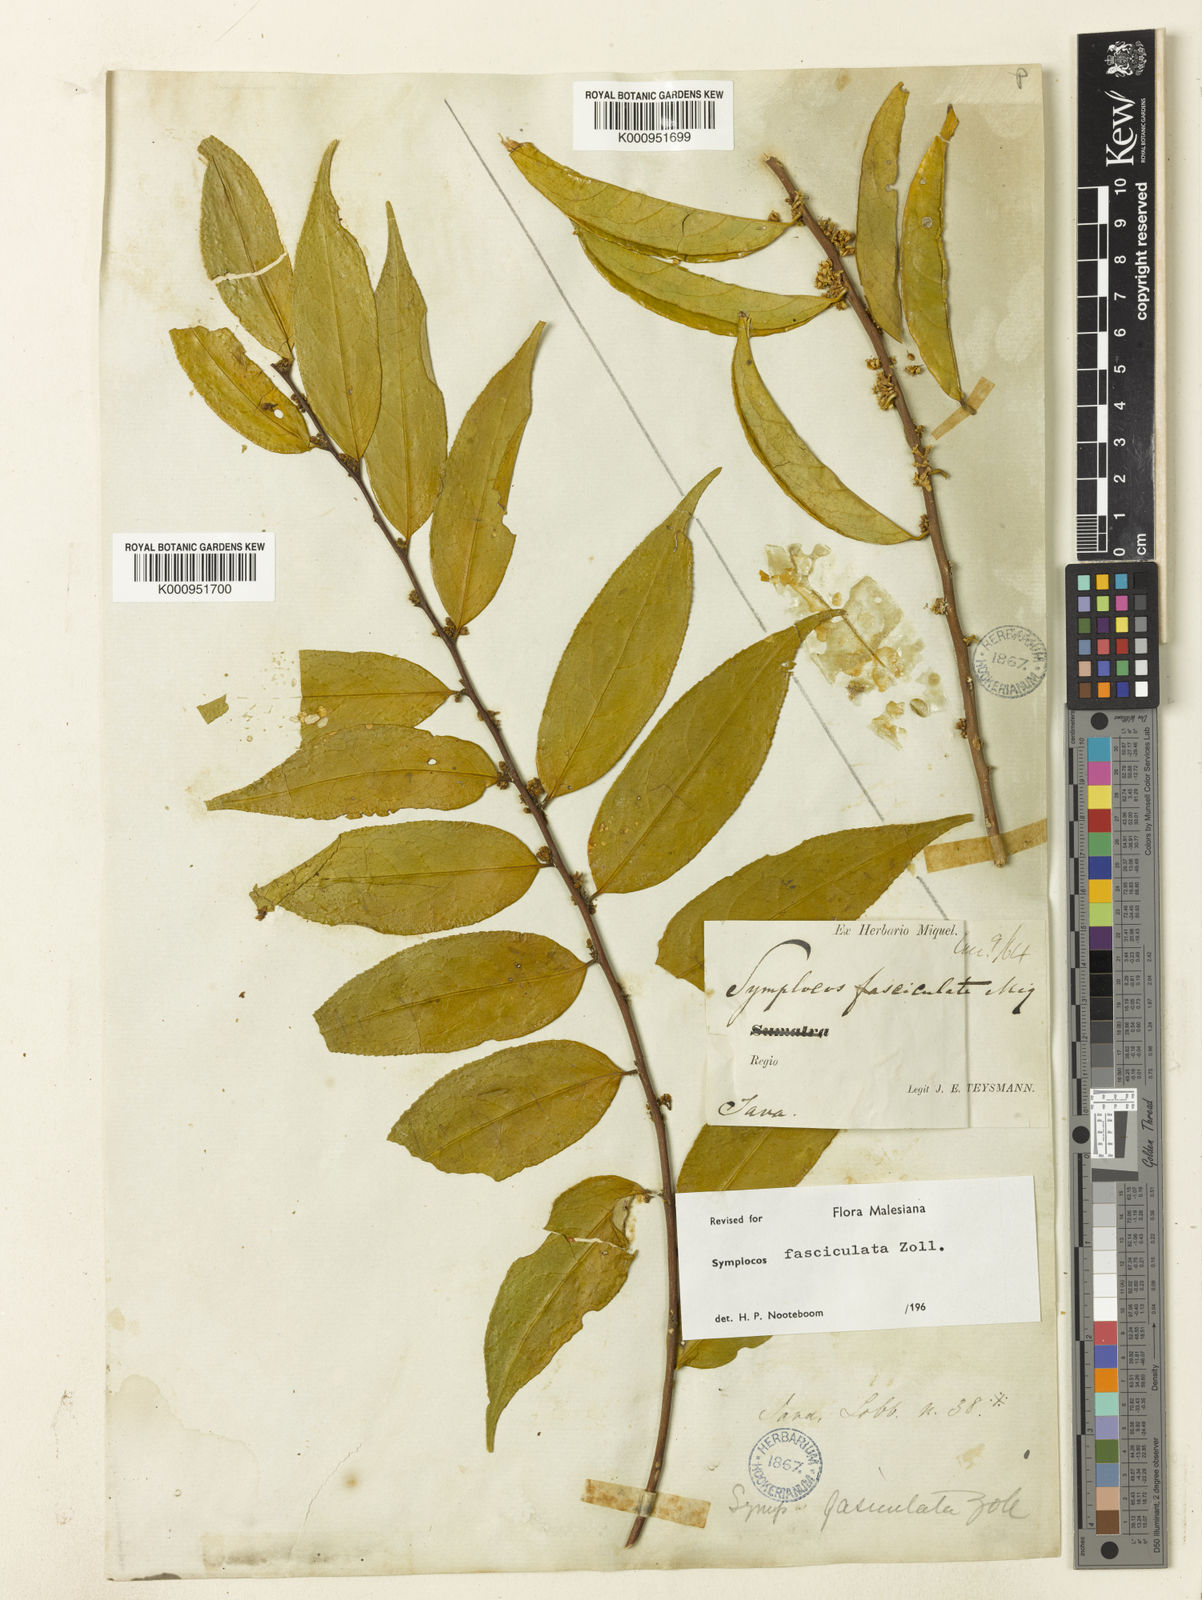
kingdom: Plantae
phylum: Tracheophyta
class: Magnoliopsida
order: Ericales
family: Symplocaceae
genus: Symplocos
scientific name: Symplocos fasciculata
